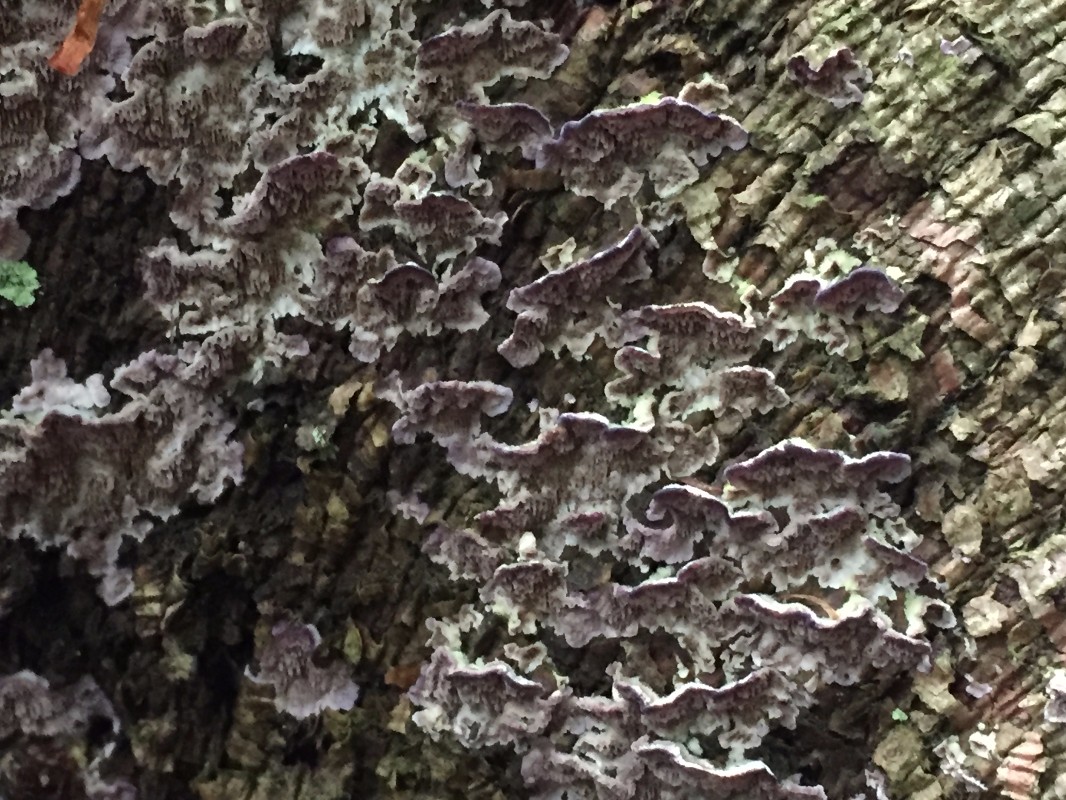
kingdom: Fungi
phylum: Basidiomycota
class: Agaricomycetes
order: Hymenochaetales
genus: Trichaptum
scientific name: Trichaptum abietinum
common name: almindelig violporesvamp
